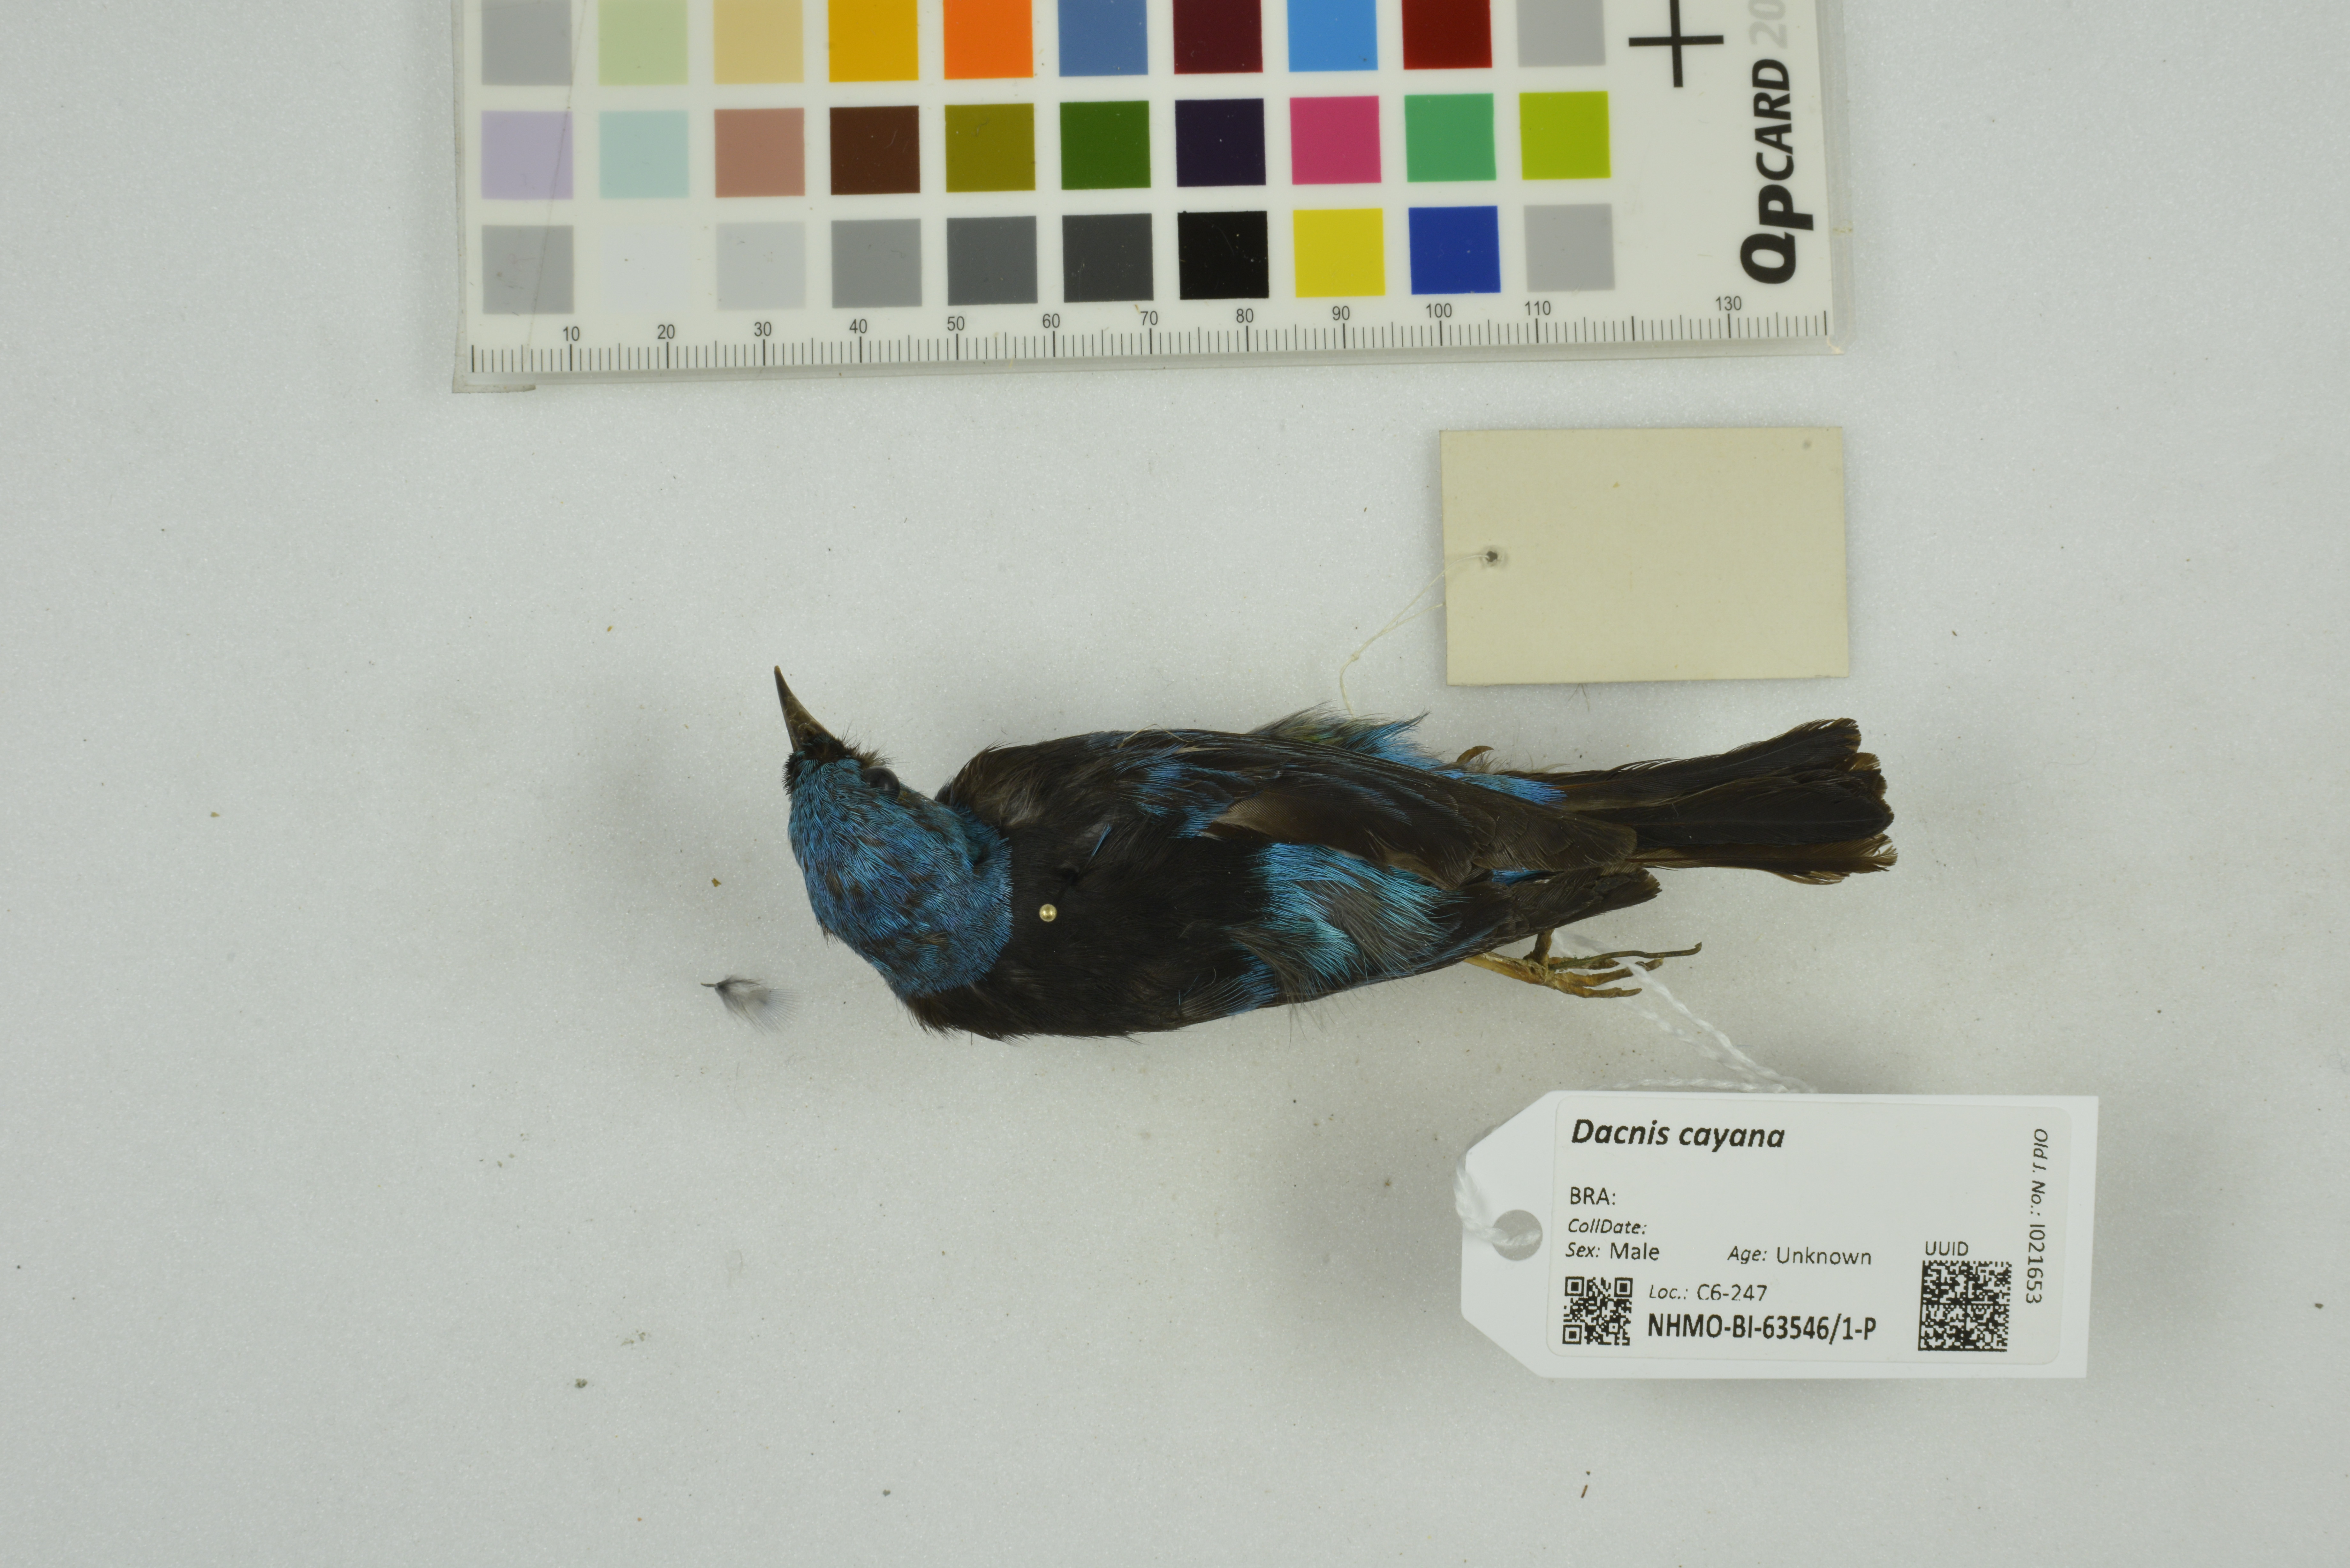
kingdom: Animalia
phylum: Chordata
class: Aves
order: Passeriformes
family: Thraupidae
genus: Dacnis
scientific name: Dacnis cayana
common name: Blue dacnis
